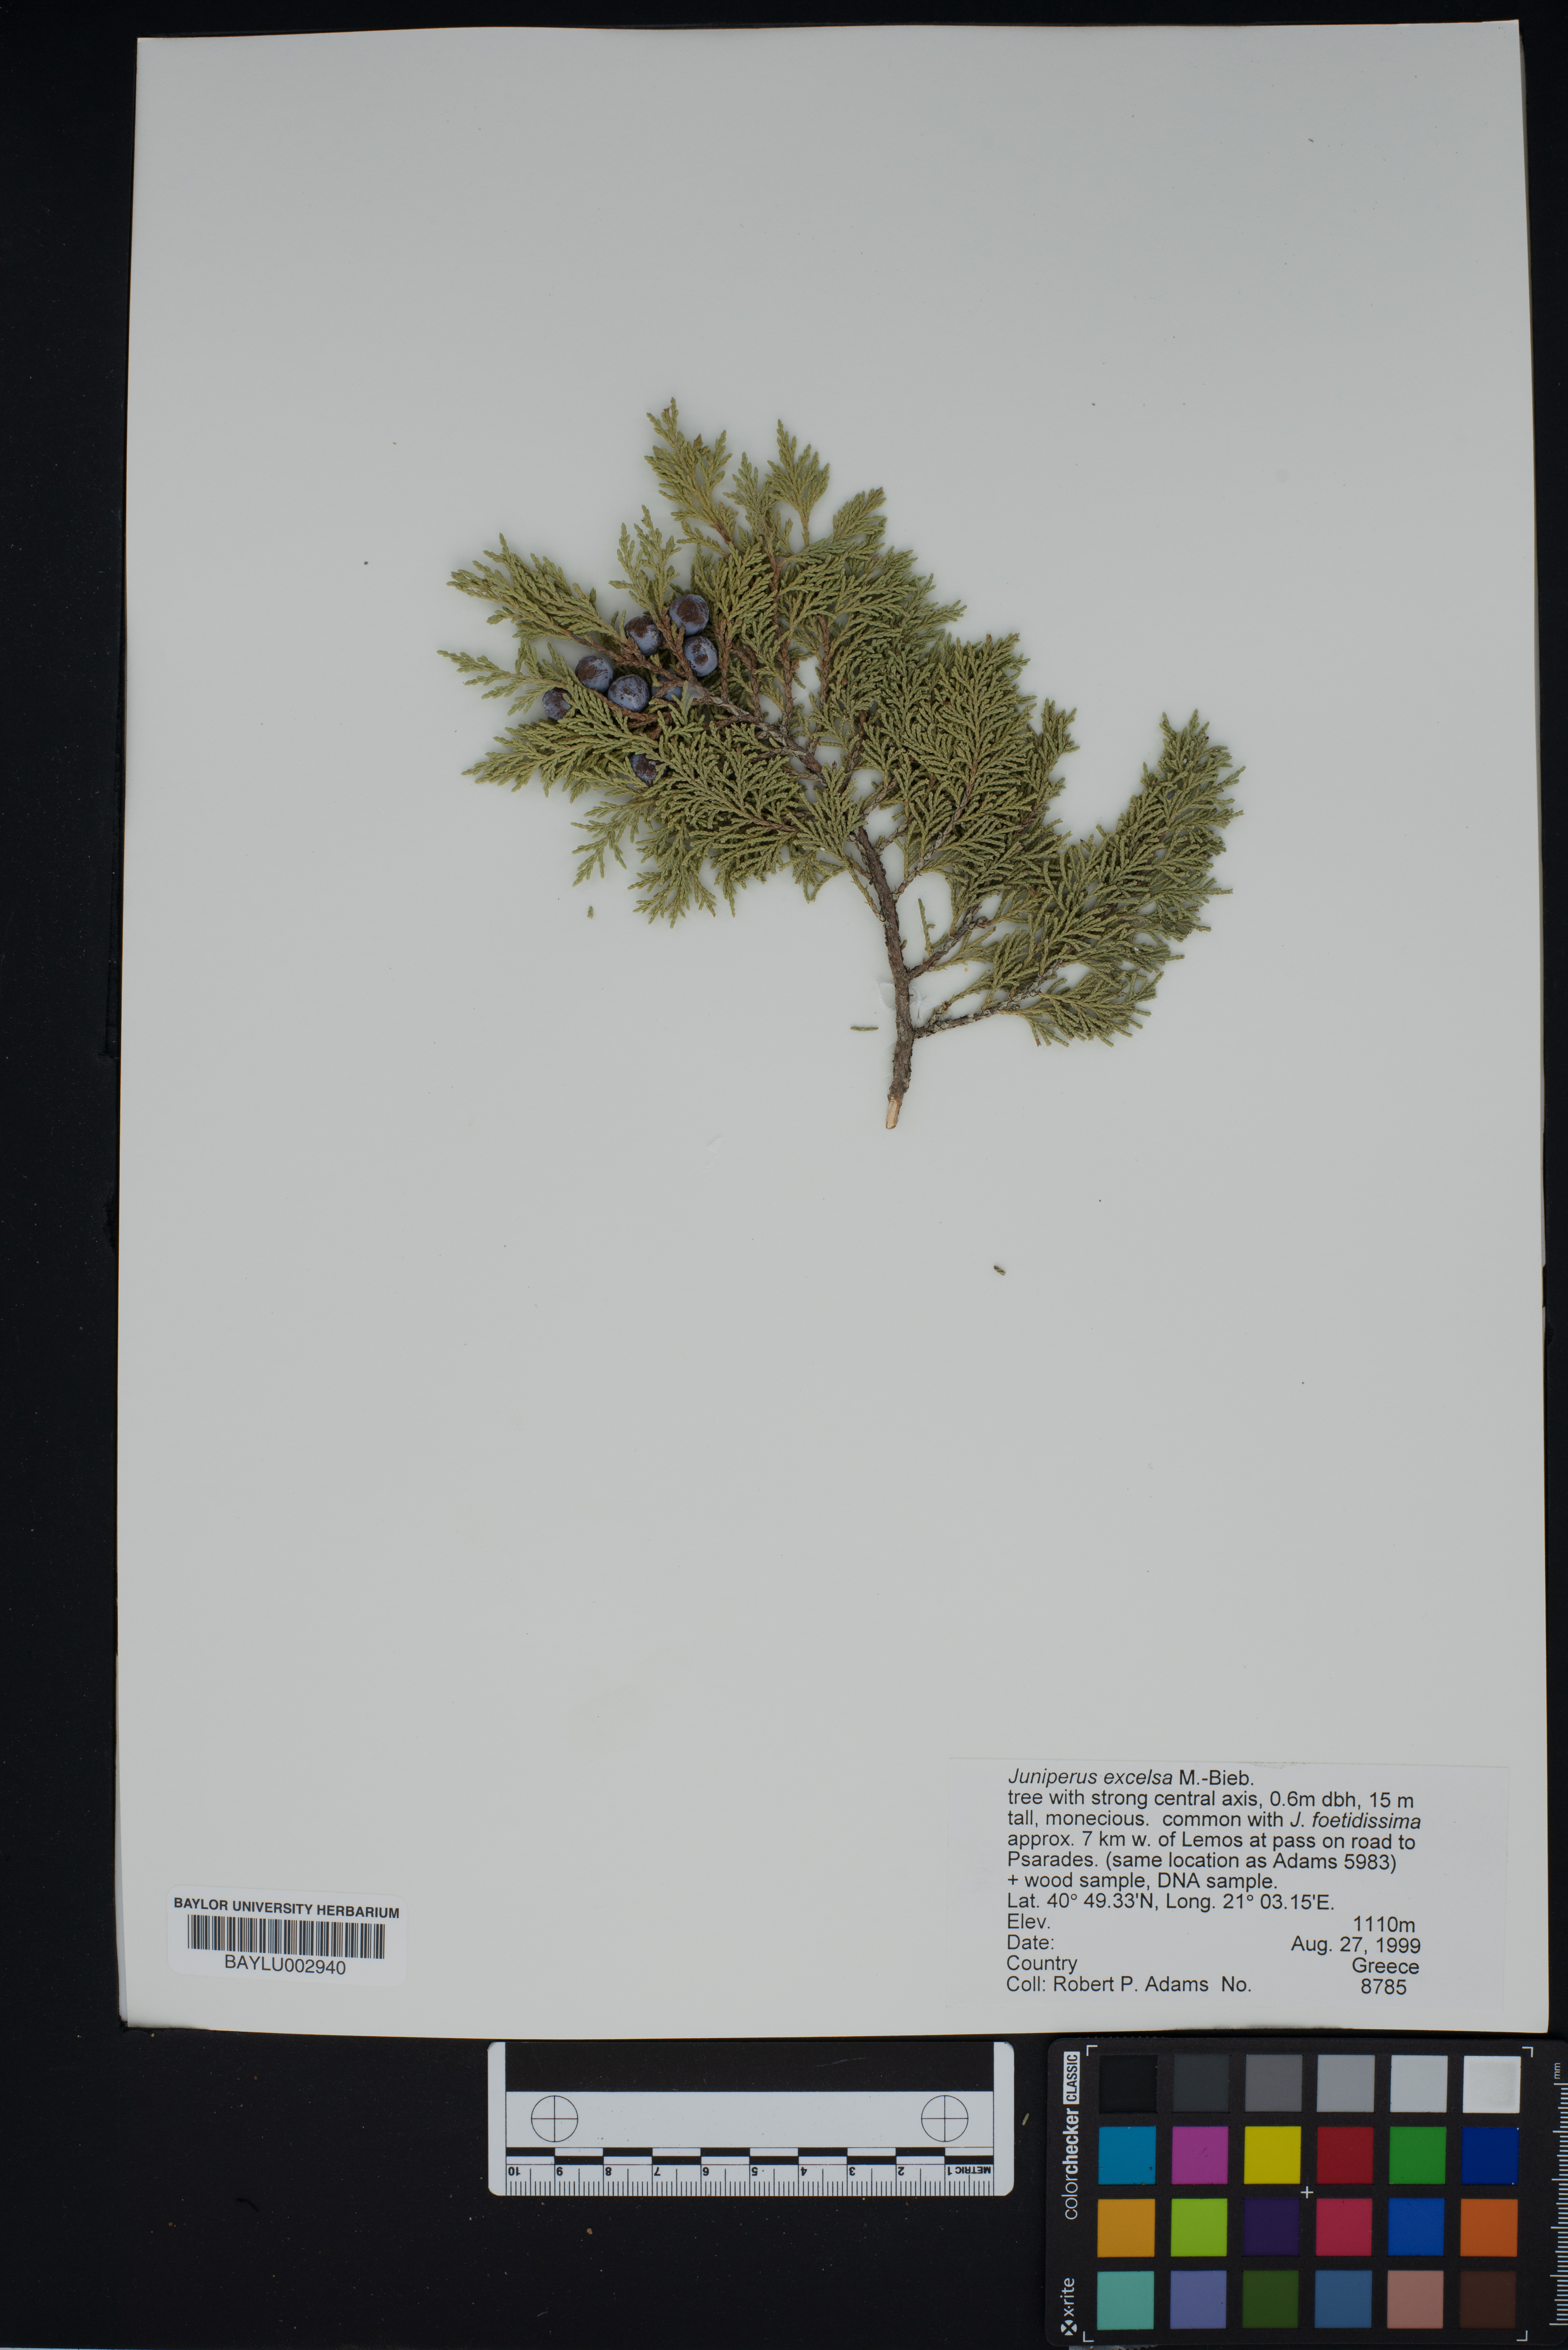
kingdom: Plantae
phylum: Tracheophyta
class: Pinopsida
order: Pinales
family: Cupressaceae
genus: Juniperus
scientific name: Juniperus excelsa
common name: Crimean juniper
